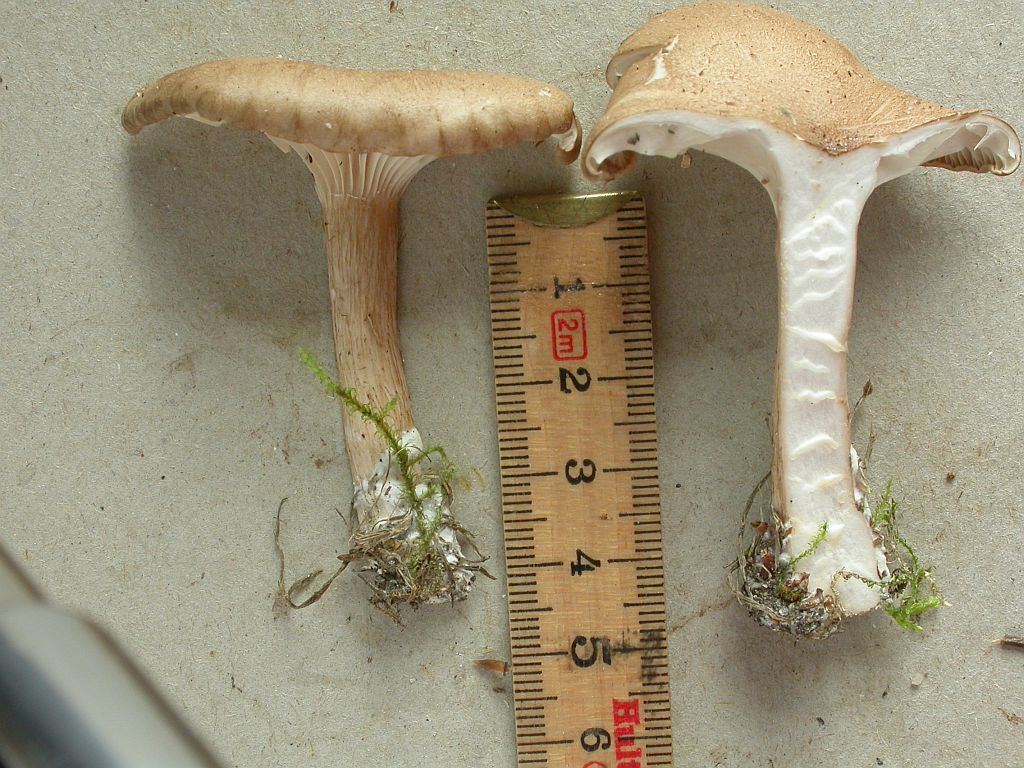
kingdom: Fungi
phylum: Basidiomycota
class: Agaricomycetes
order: Agaricales
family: Tricholomataceae
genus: Infundibulicybe
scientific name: Infundibulicybe squamulosa
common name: småskællet tragthat
